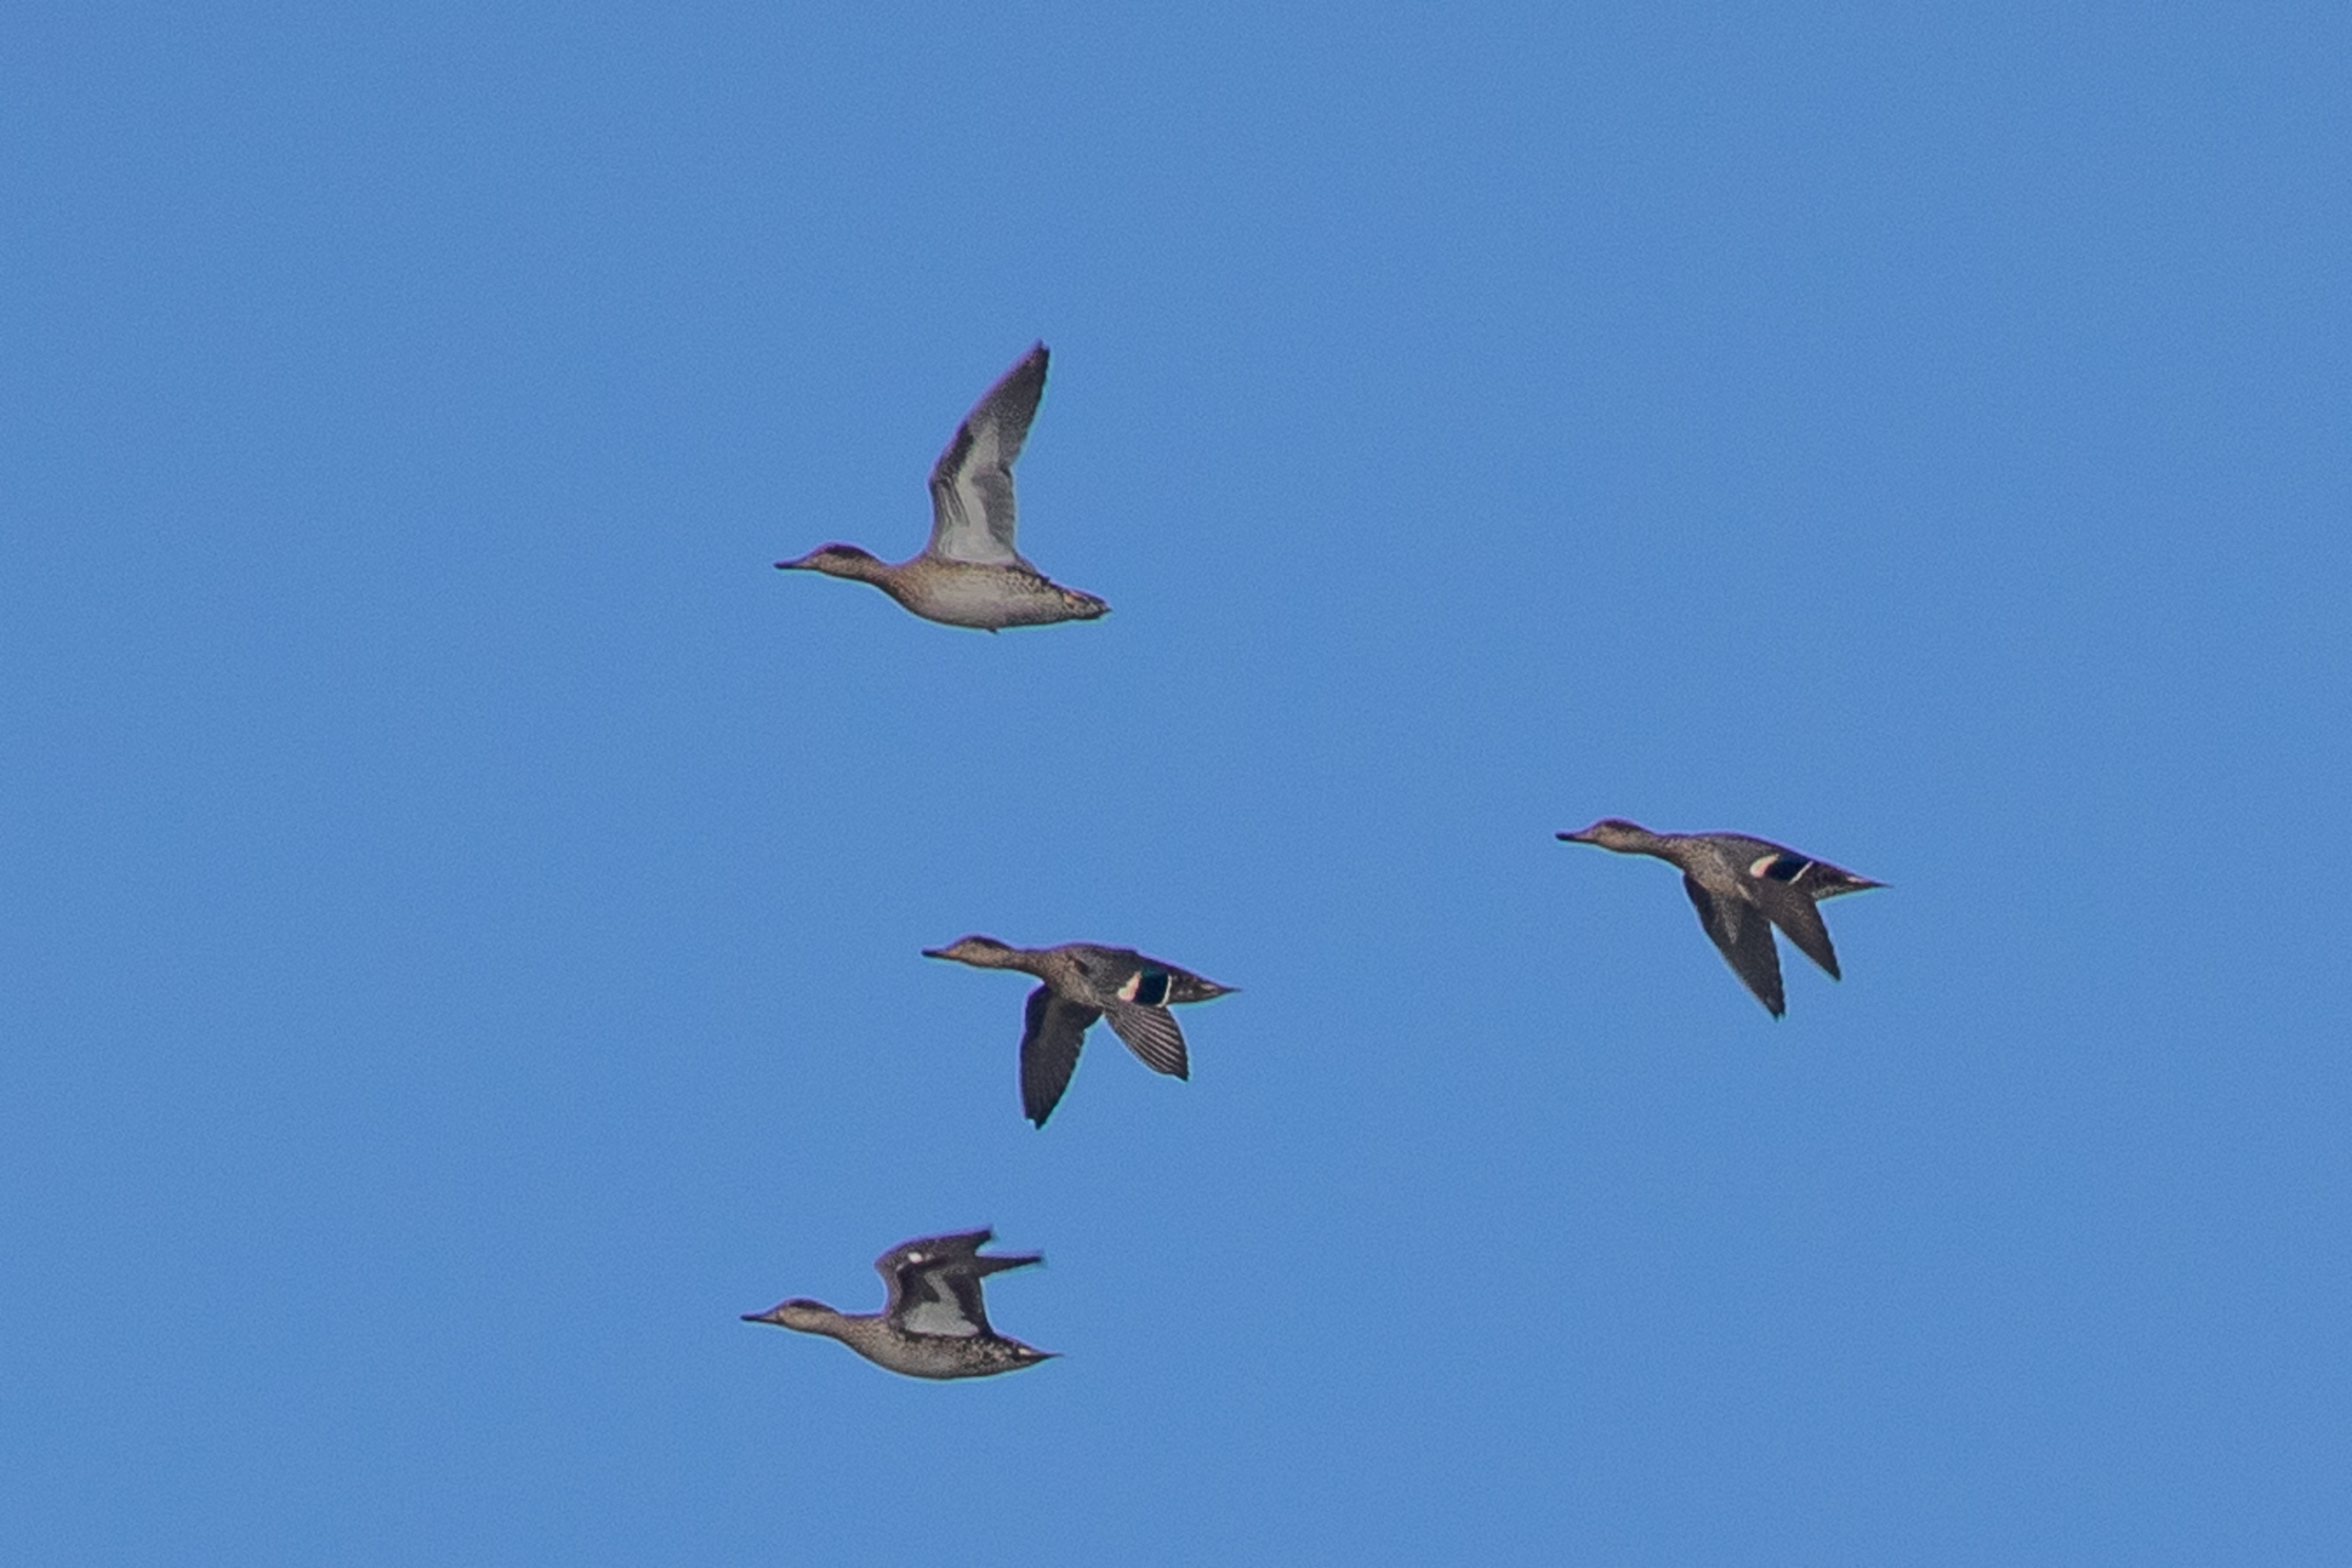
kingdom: Animalia
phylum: Chordata
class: Aves
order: Anseriformes
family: Anatidae
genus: Anas
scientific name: Anas crecca
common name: Krikand
